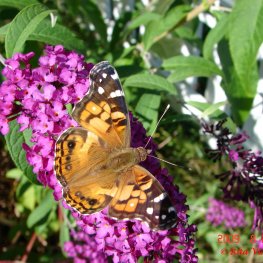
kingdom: Animalia
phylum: Arthropoda
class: Insecta
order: Lepidoptera
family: Nymphalidae
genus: Vanessa
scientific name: Vanessa virginiensis
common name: American Lady
